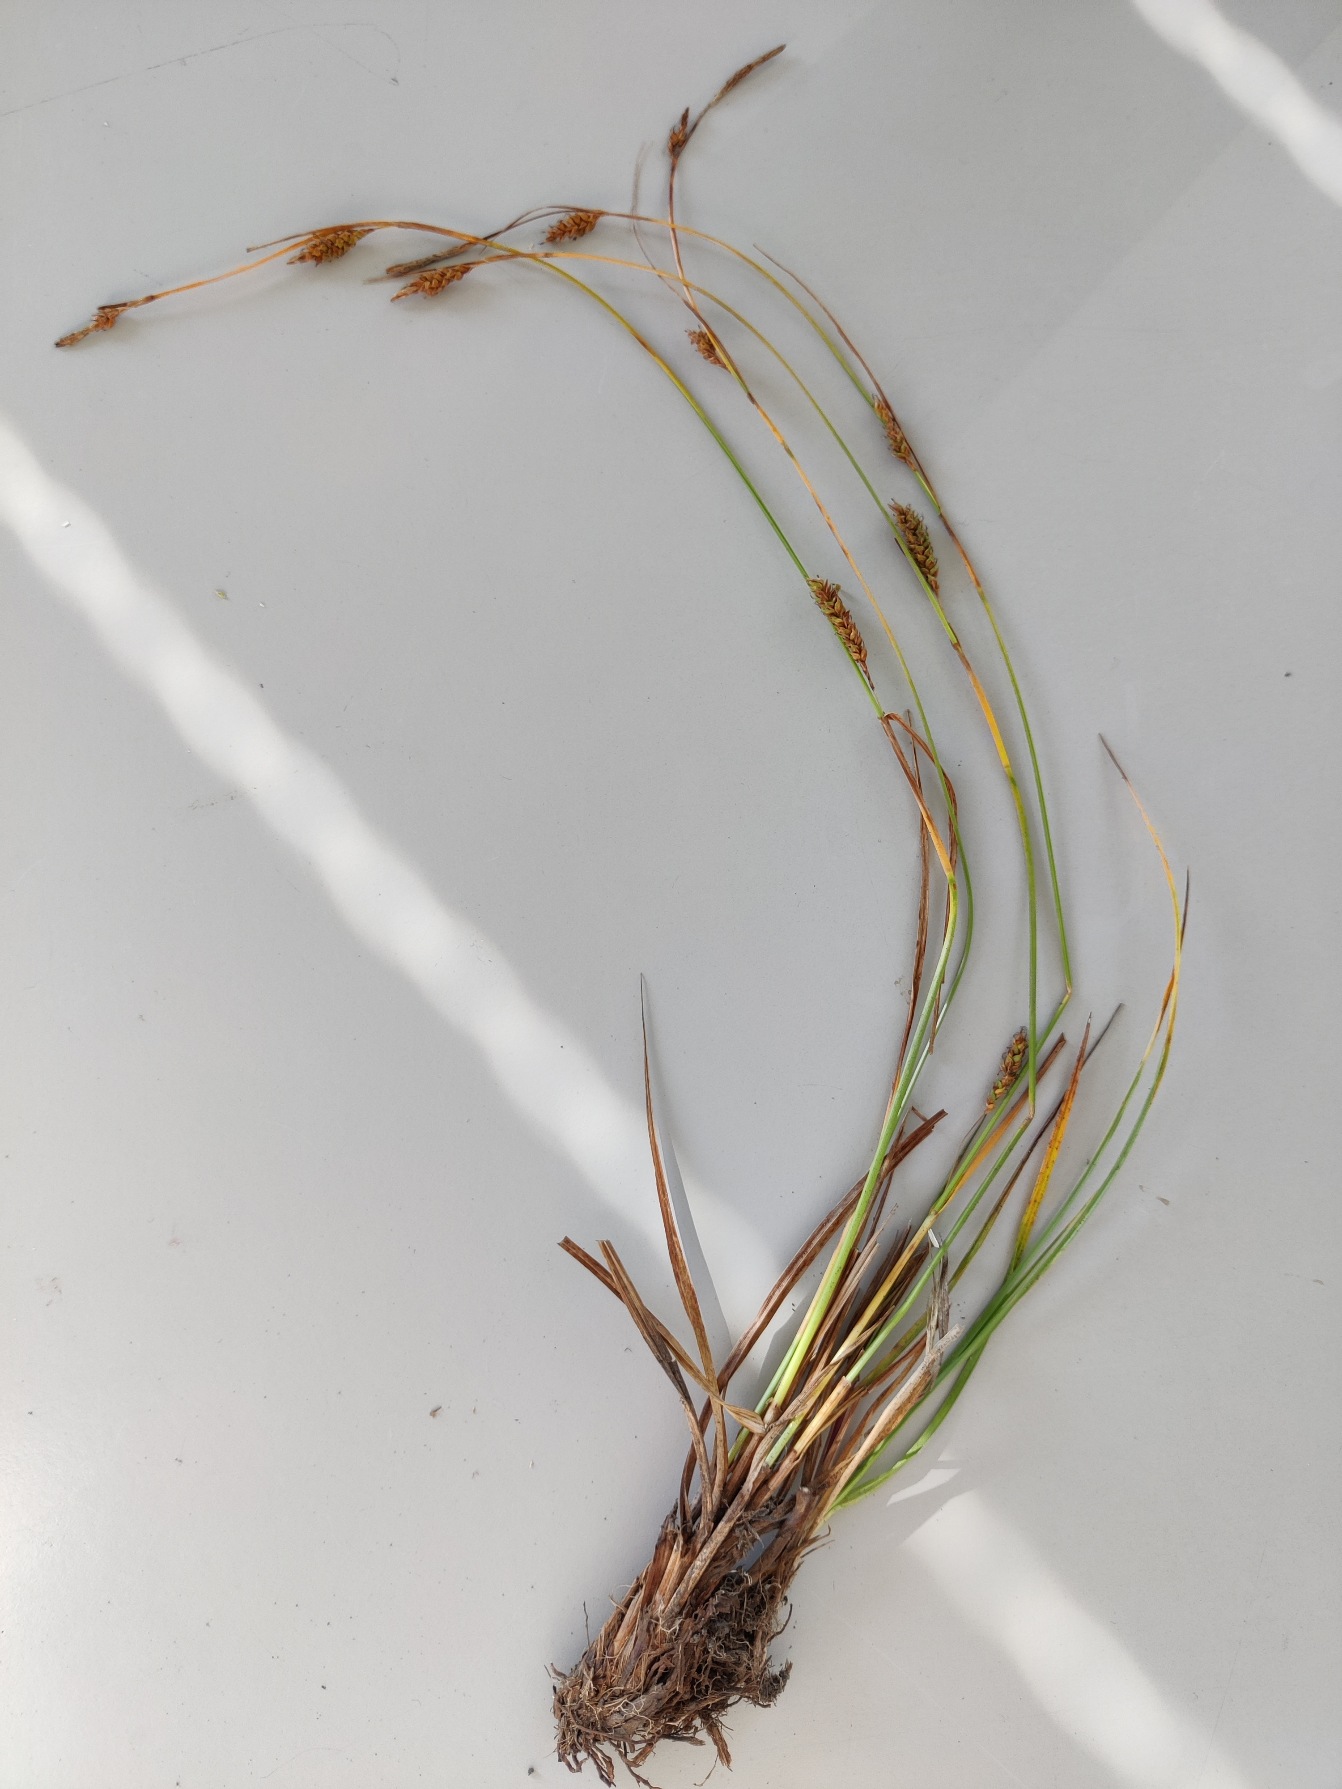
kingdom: Plantae
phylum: Tracheophyta
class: Liliopsida
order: Poales
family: Cyperaceae
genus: Carex
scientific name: Carex distans
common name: Fjernakset star
